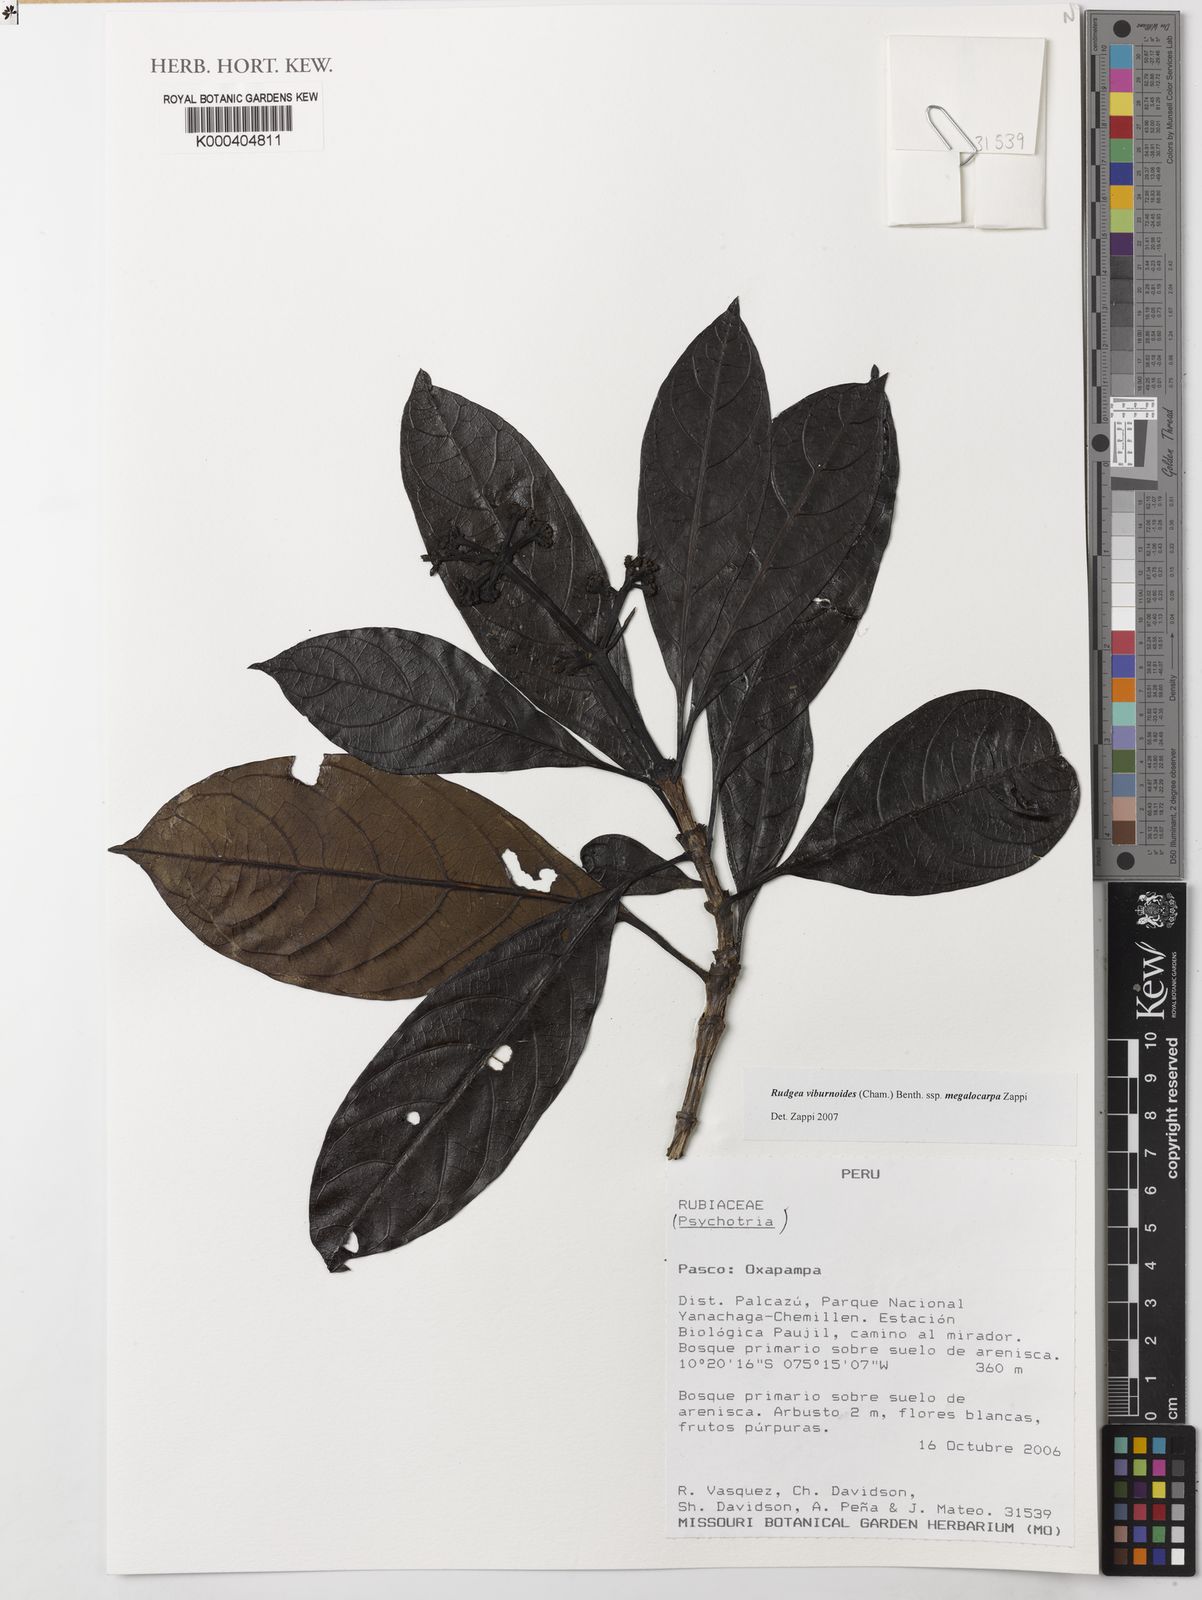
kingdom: Plantae
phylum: Tracheophyta
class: Magnoliopsida
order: Gentianales
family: Rubiaceae
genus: Rudgea
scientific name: Rudgea viburnoides
